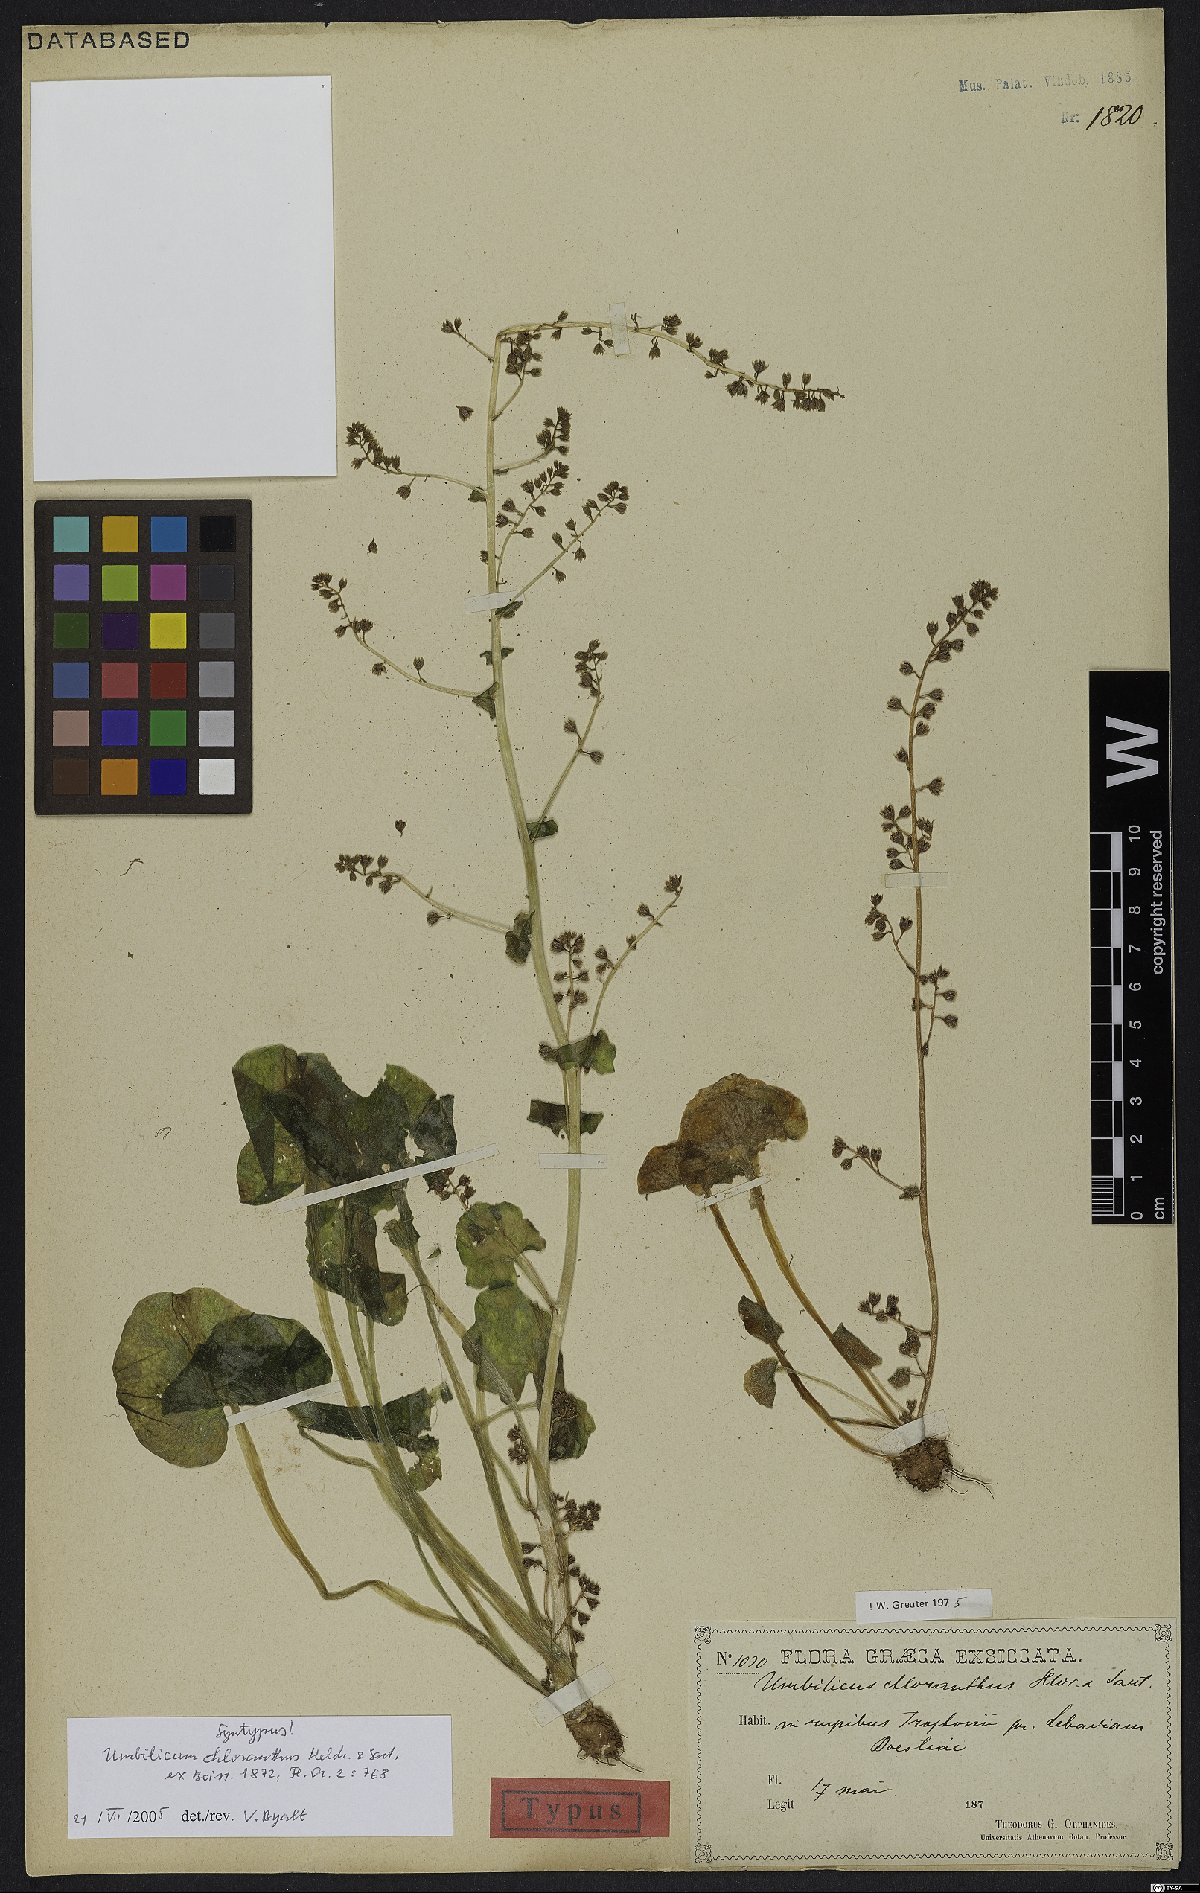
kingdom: Plantae
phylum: Tracheophyta
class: Magnoliopsida
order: Saxifragales
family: Crassulaceae
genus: Umbilicus
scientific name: Umbilicus chloranthus
